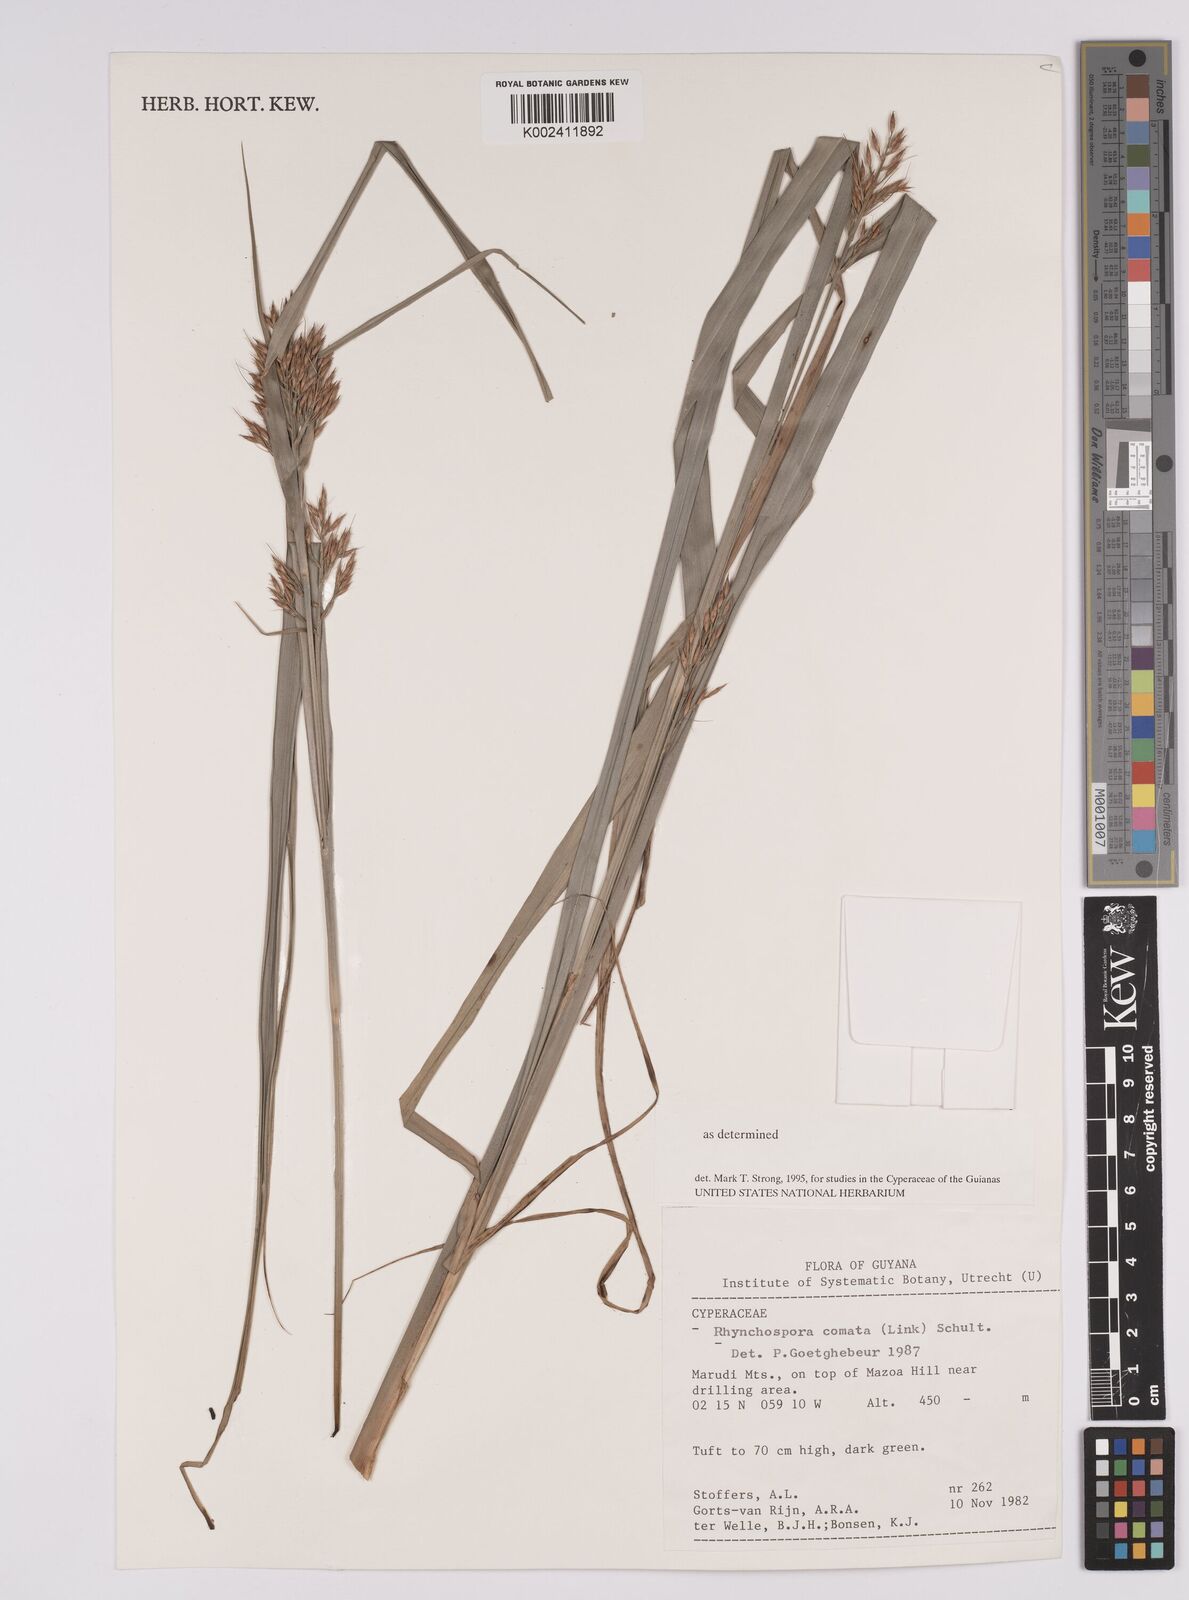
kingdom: Plantae
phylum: Tracheophyta
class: Liliopsida
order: Poales
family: Cyperaceae
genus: Rhynchospora
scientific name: Rhynchospora comata
